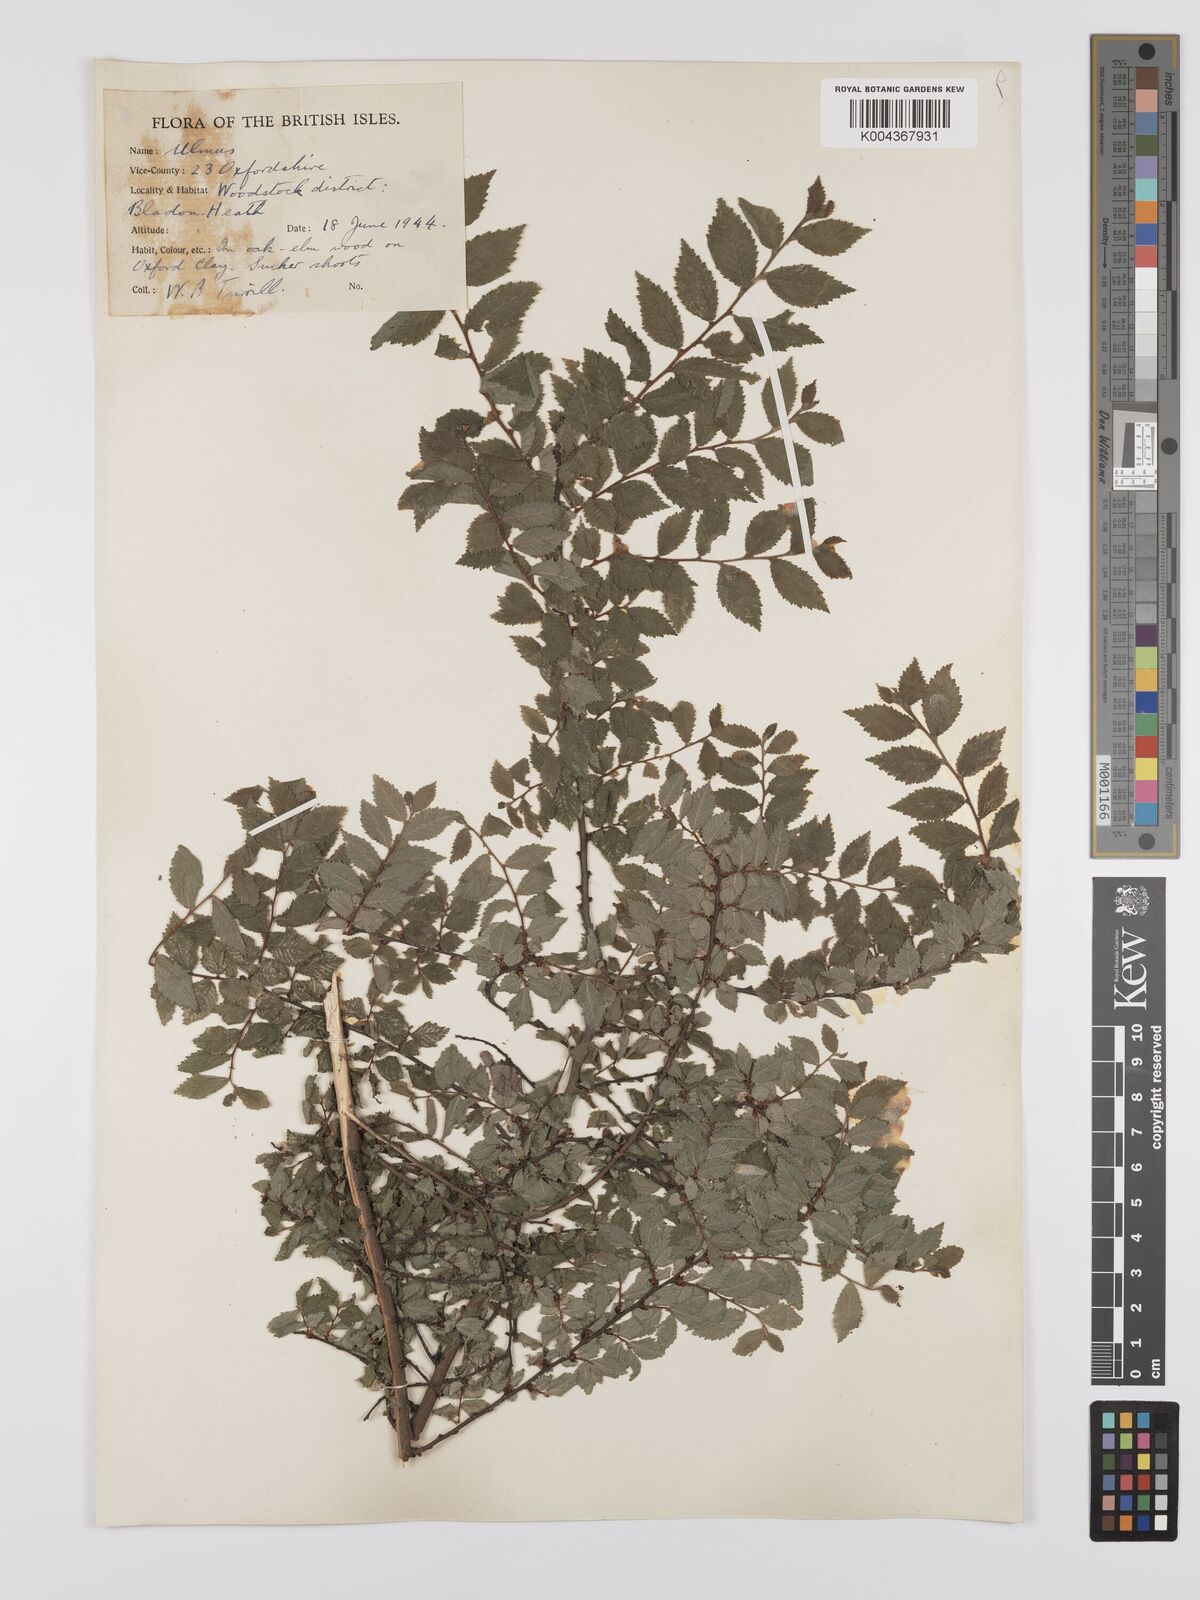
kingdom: Plantae
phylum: Tracheophyta
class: Magnoliopsida
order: Rosales
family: Ulmaceae
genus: Ulmus
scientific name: Ulmus
